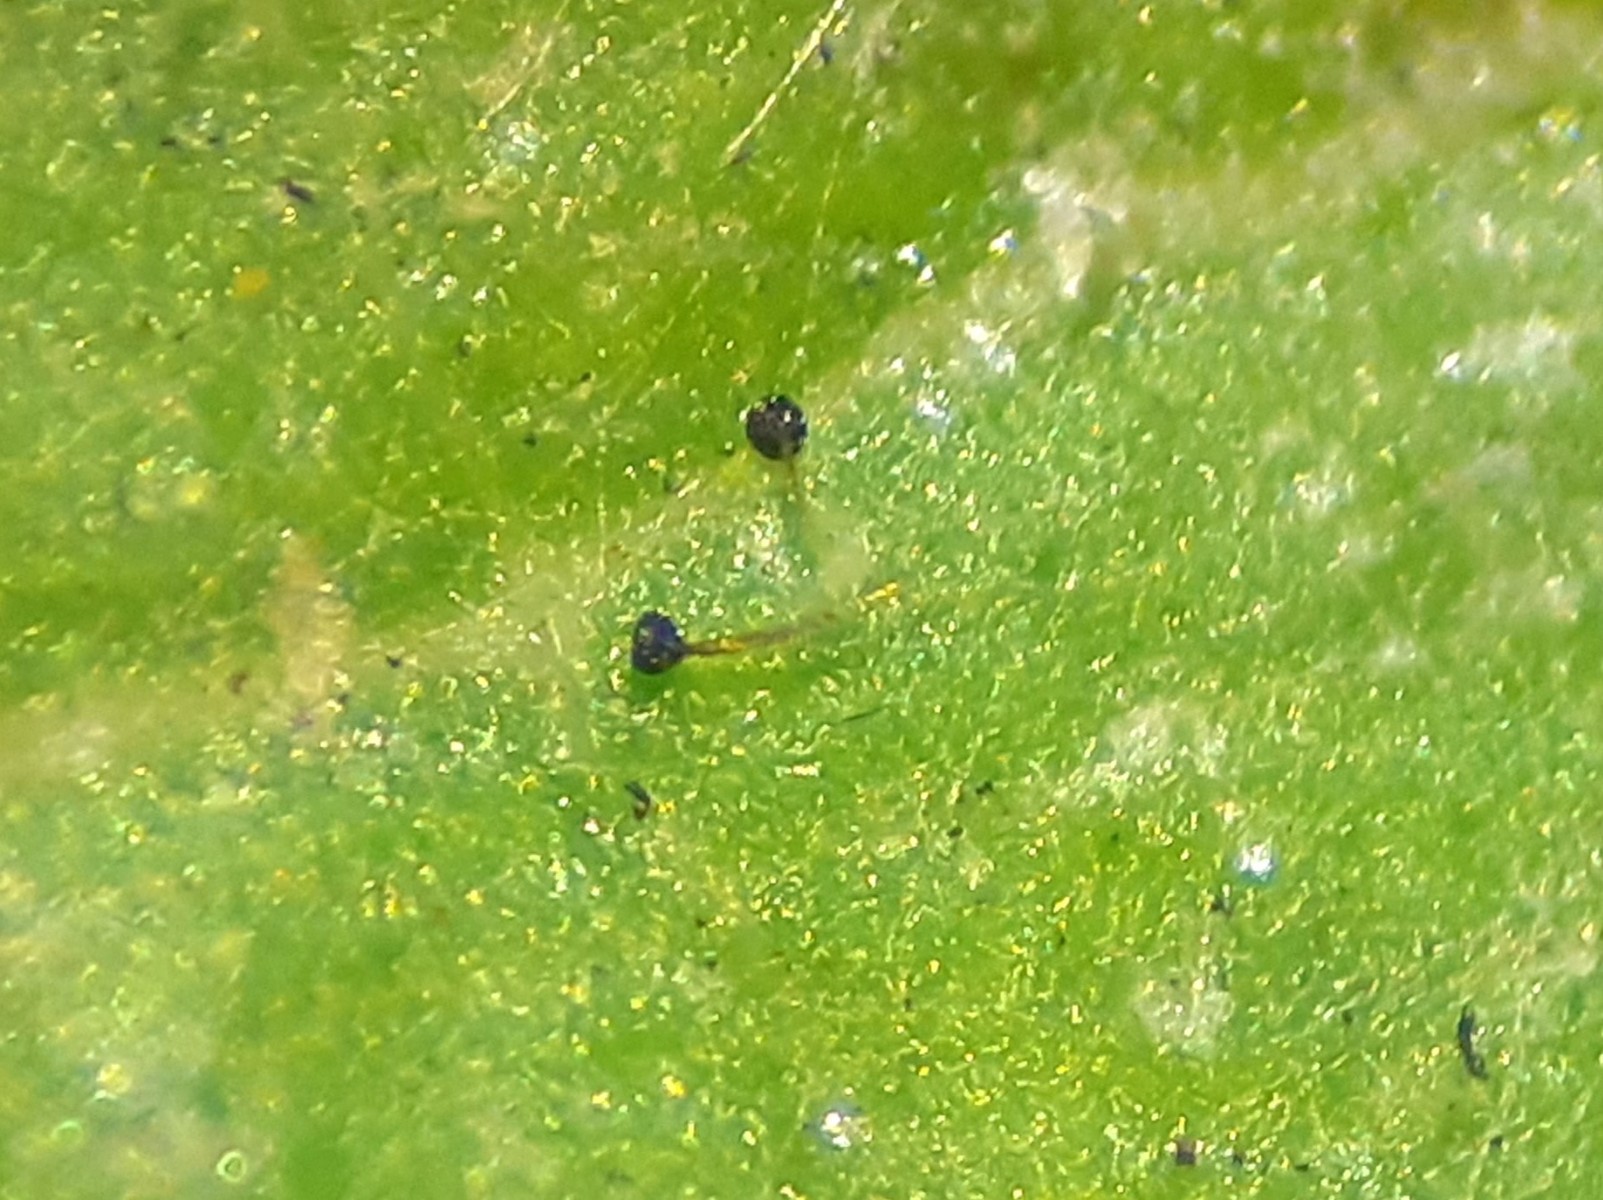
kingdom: Fungi
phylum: Ascomycota
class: Leotiomycetes
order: Helotiales
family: Erysiphaceae
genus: Podosphaera
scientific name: Podosphaera tridactyla
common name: Plum mildew
